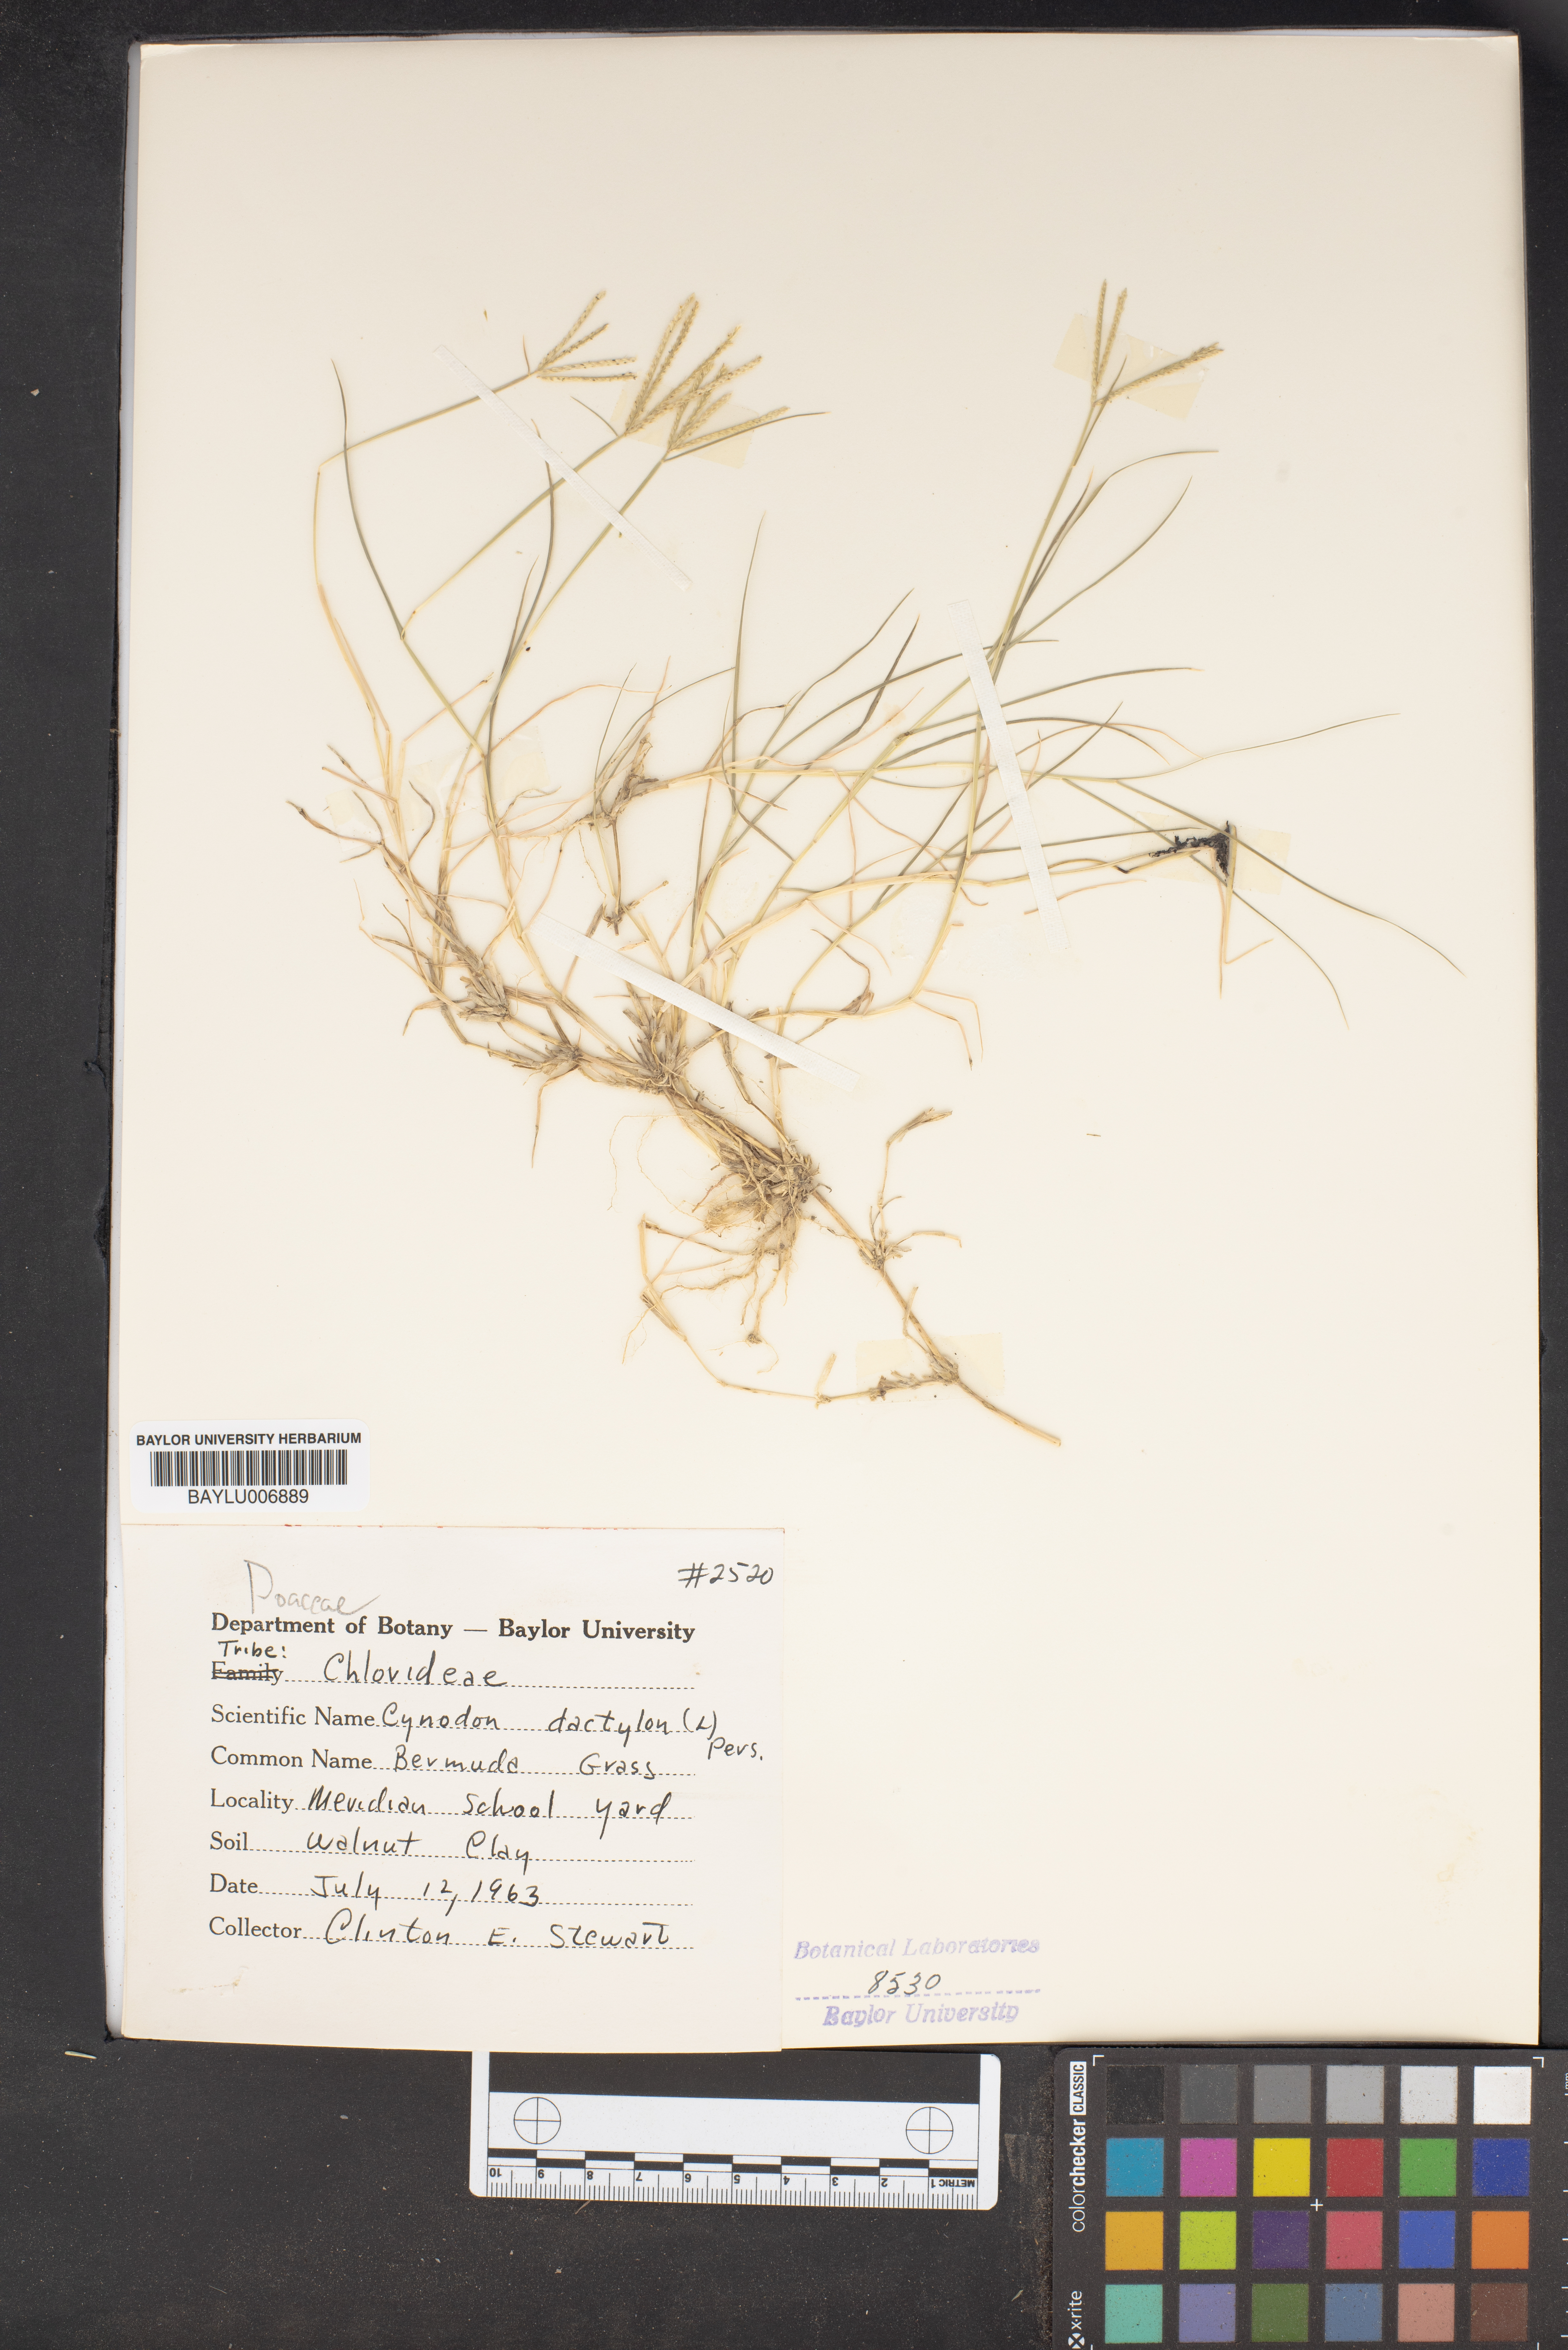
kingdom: Plantae
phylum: Tracheophyta
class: Liliopsida
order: Poales
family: Poaceae
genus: Cynodon
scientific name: Cynodon dactylon
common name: Bermuda grass
